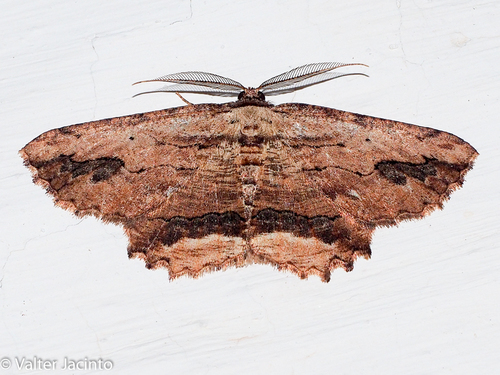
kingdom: Animalia
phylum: Arthropoda
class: Insecta
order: Lepidoptera
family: Geometridae
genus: Menophra
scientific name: Menophra japygiaria
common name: Brassy waved umber
